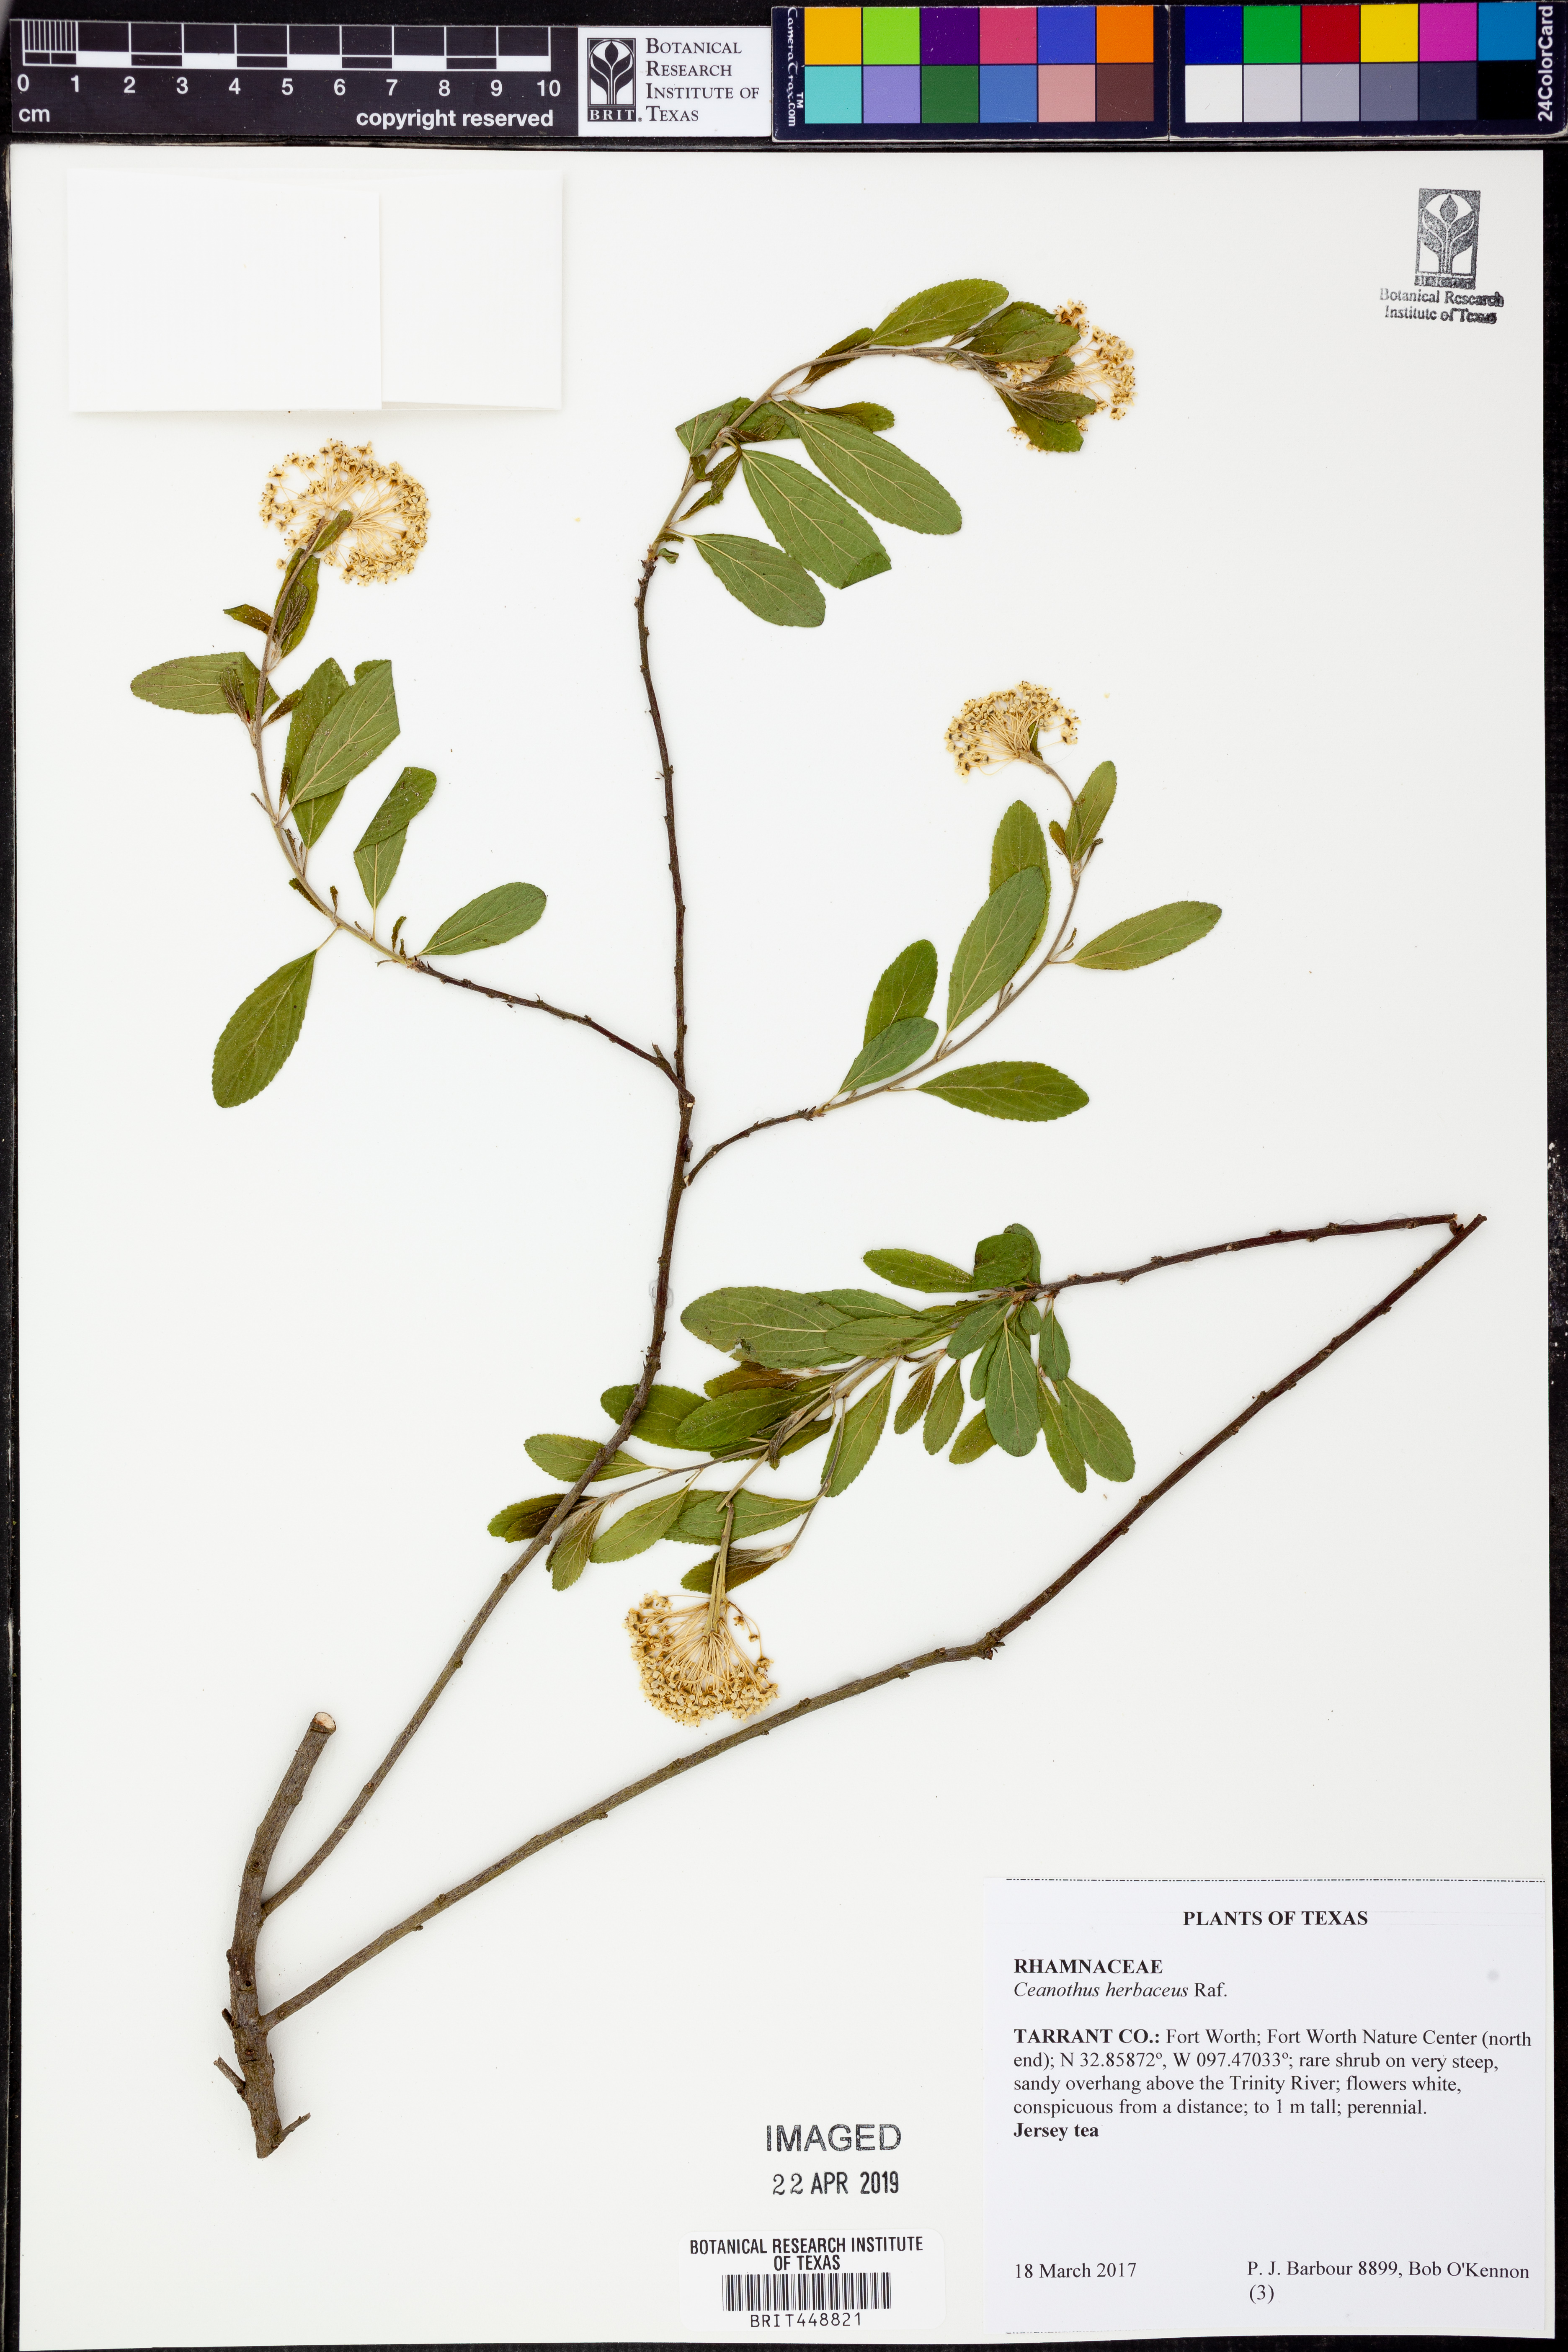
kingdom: Plantae
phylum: Tracheophyta
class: Magnoliopsida
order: Rosales
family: Rhamnaceae
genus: Ceanothus
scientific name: Ceanothus herbaceus
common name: Inland ceanothus
